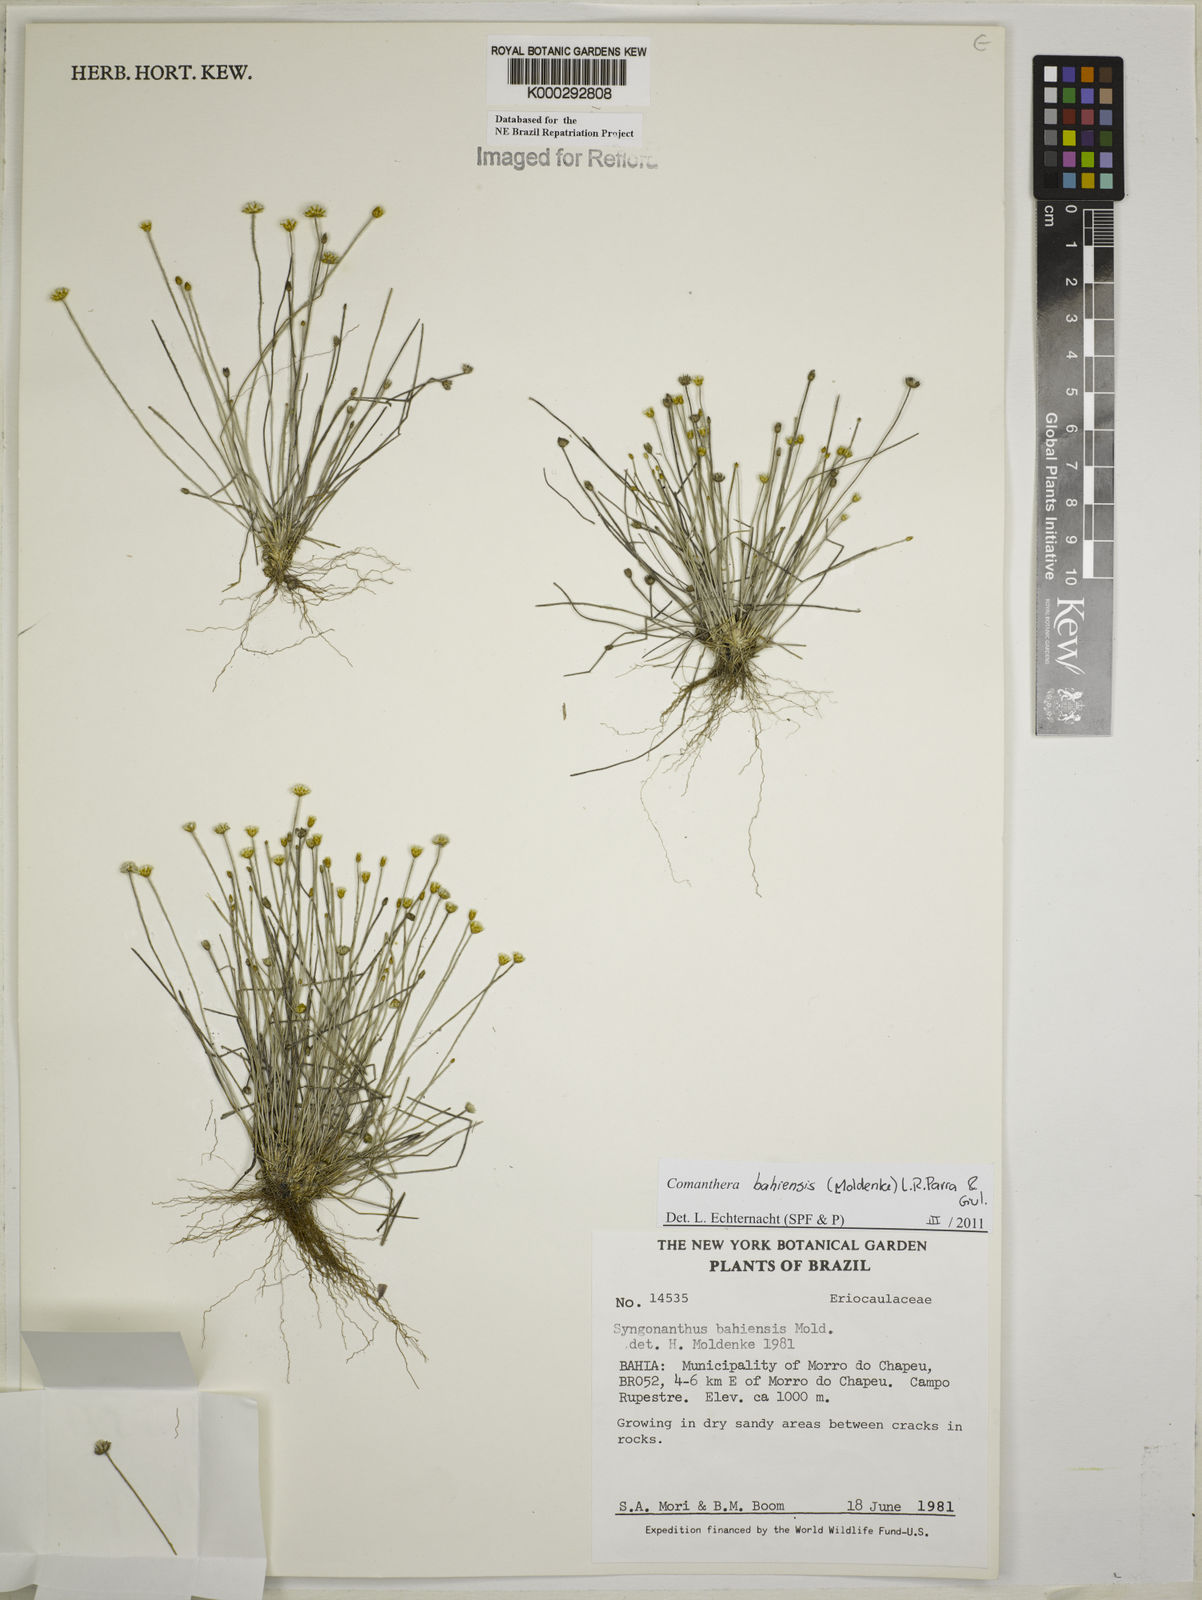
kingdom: Plantae
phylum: Tracheophyta
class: Liliopsida
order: Poales
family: Eriocaulaceae
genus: Comanthera
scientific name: Comanthera bahiensis
